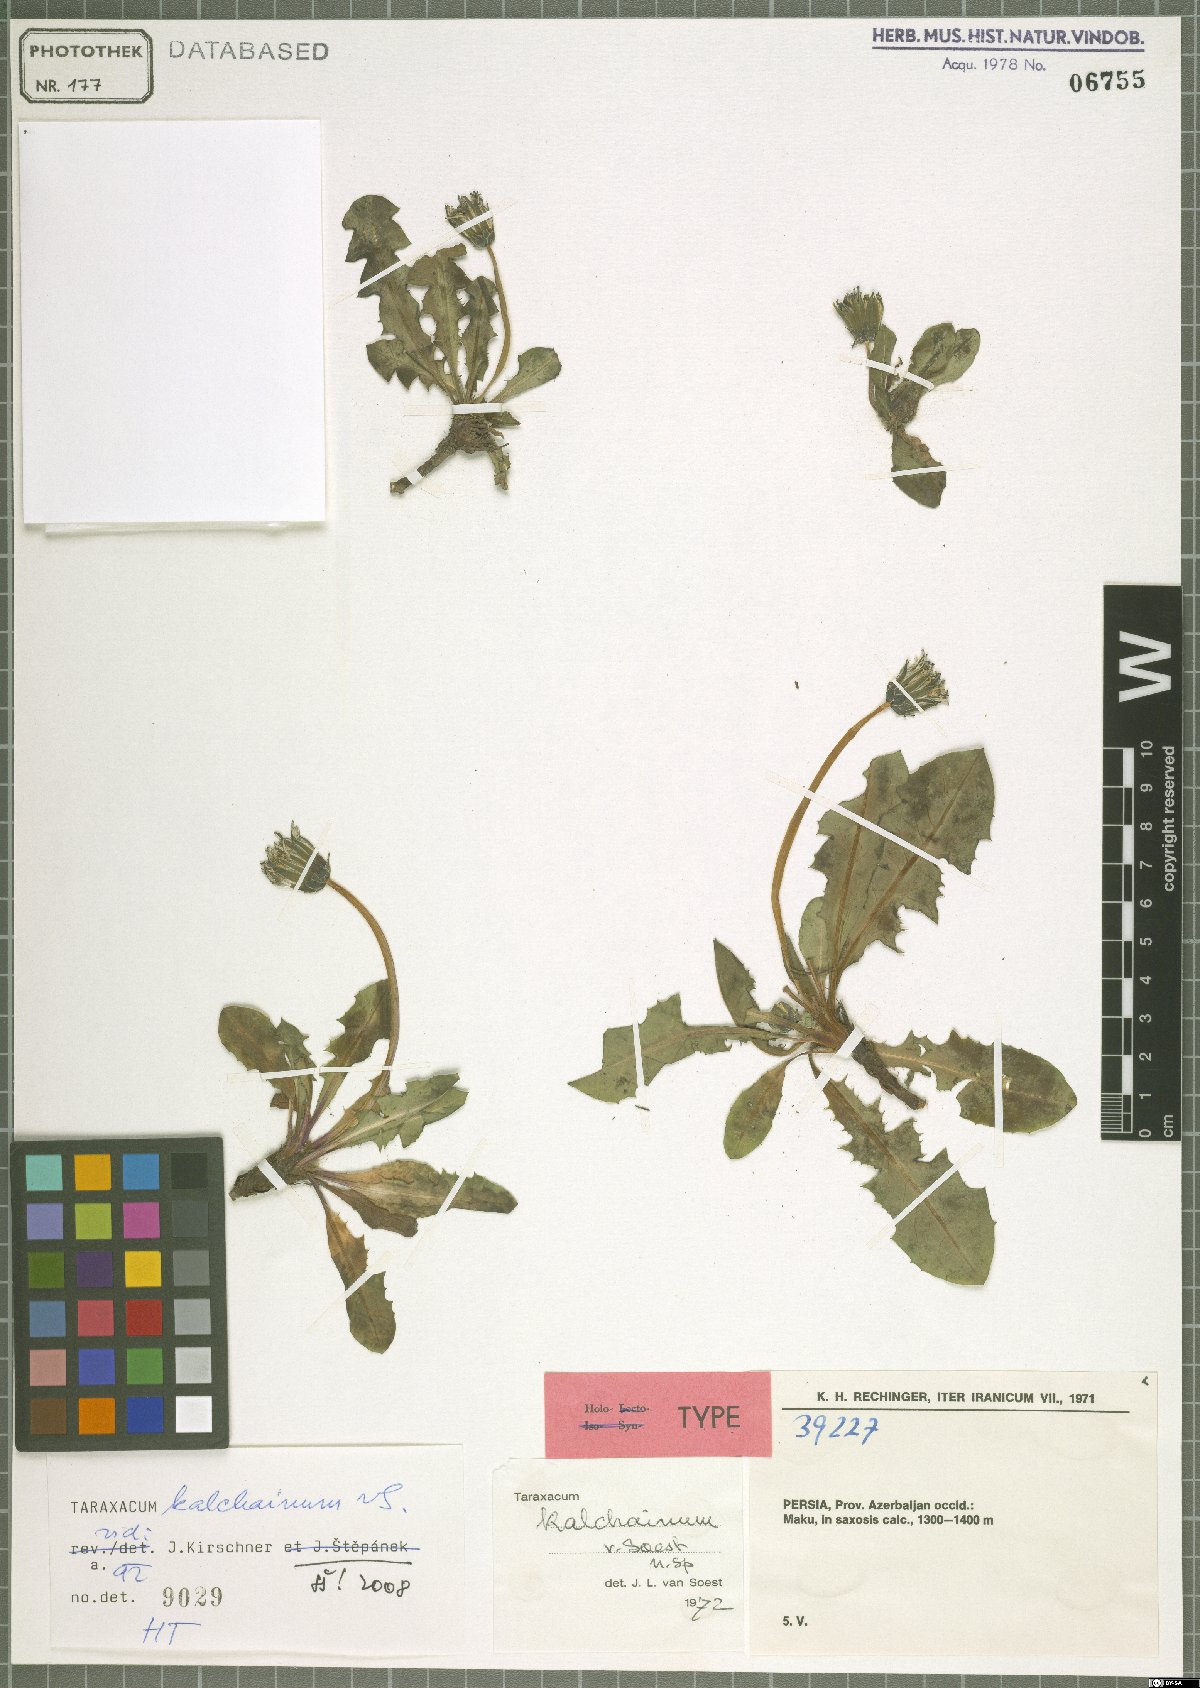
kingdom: Plantae
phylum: Tracheophyta
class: Magnoliopsida
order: Asterales
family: Asteraceae
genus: Taraxacum
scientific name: Taraxacum kalchainum
